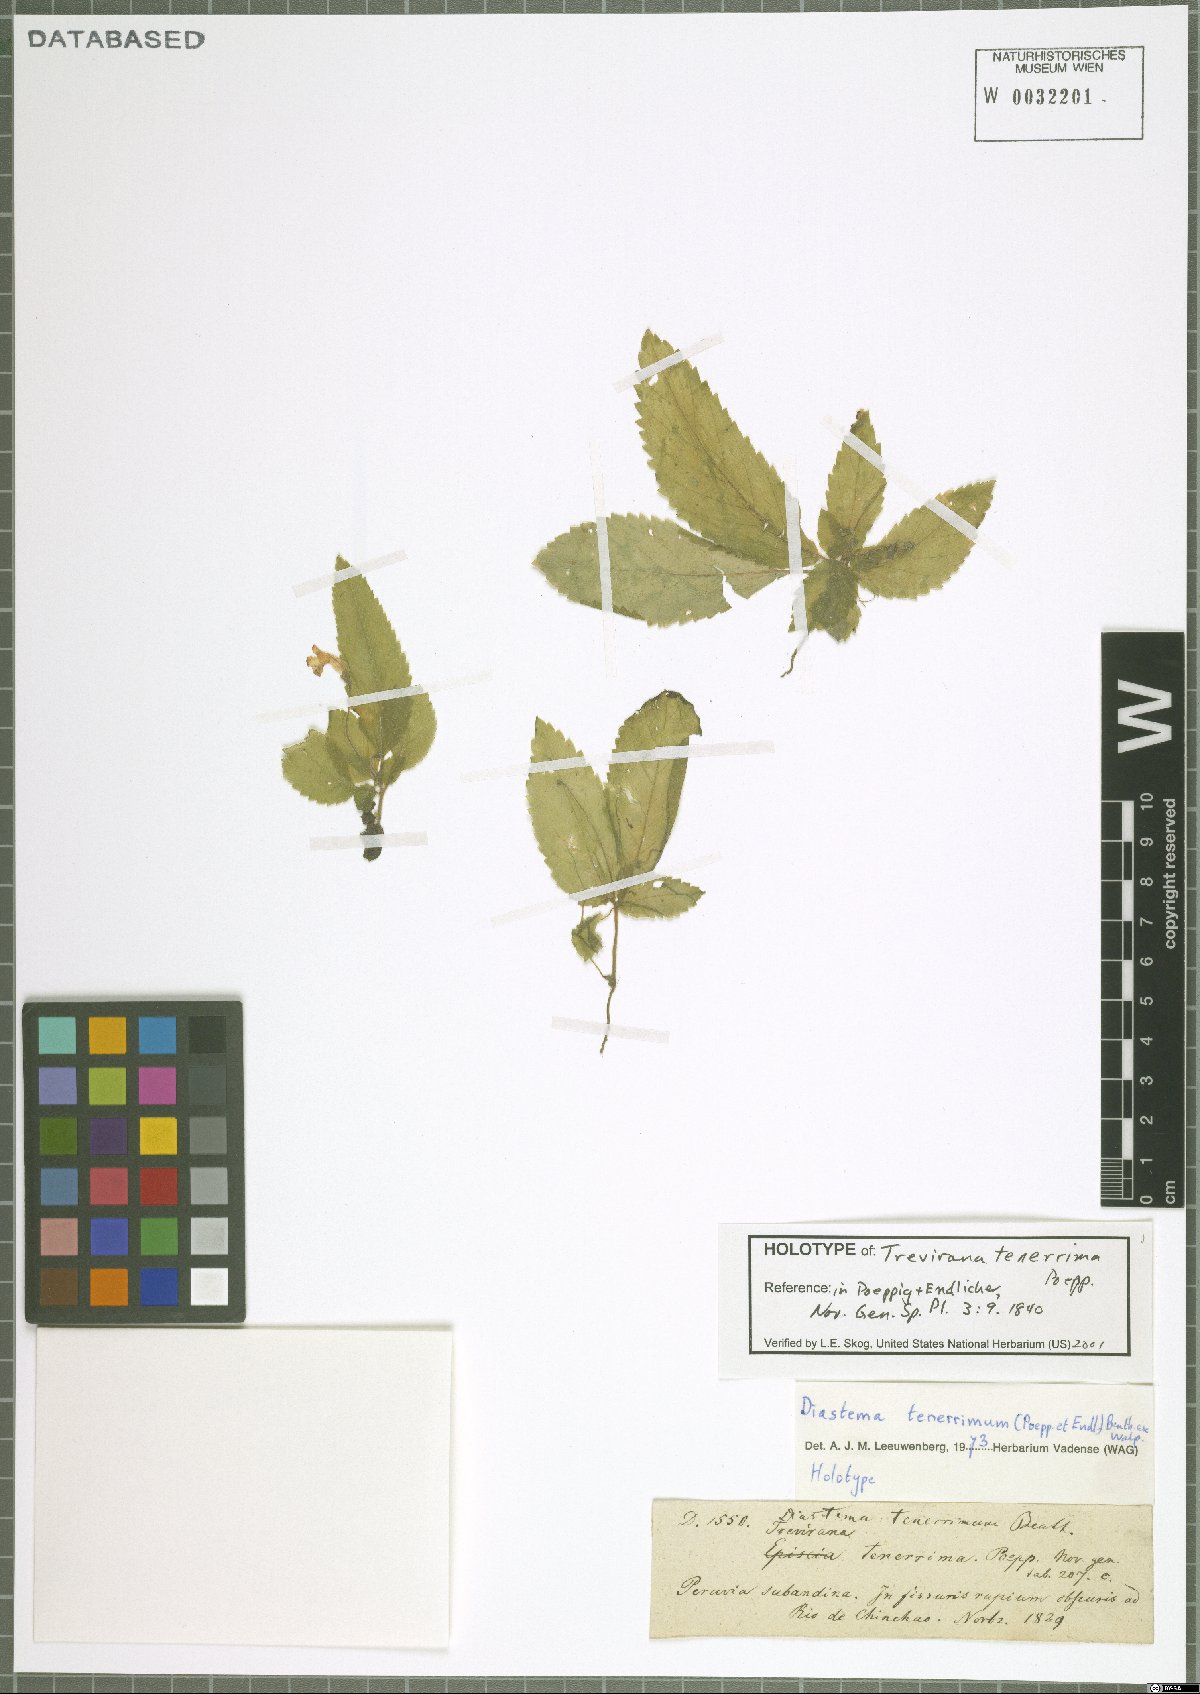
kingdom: Plantae
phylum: Tracheophyta
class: Magnoliopsida
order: Lamiales
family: Gesneriaceae
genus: Diastema
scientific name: Diastema tenerrimum
